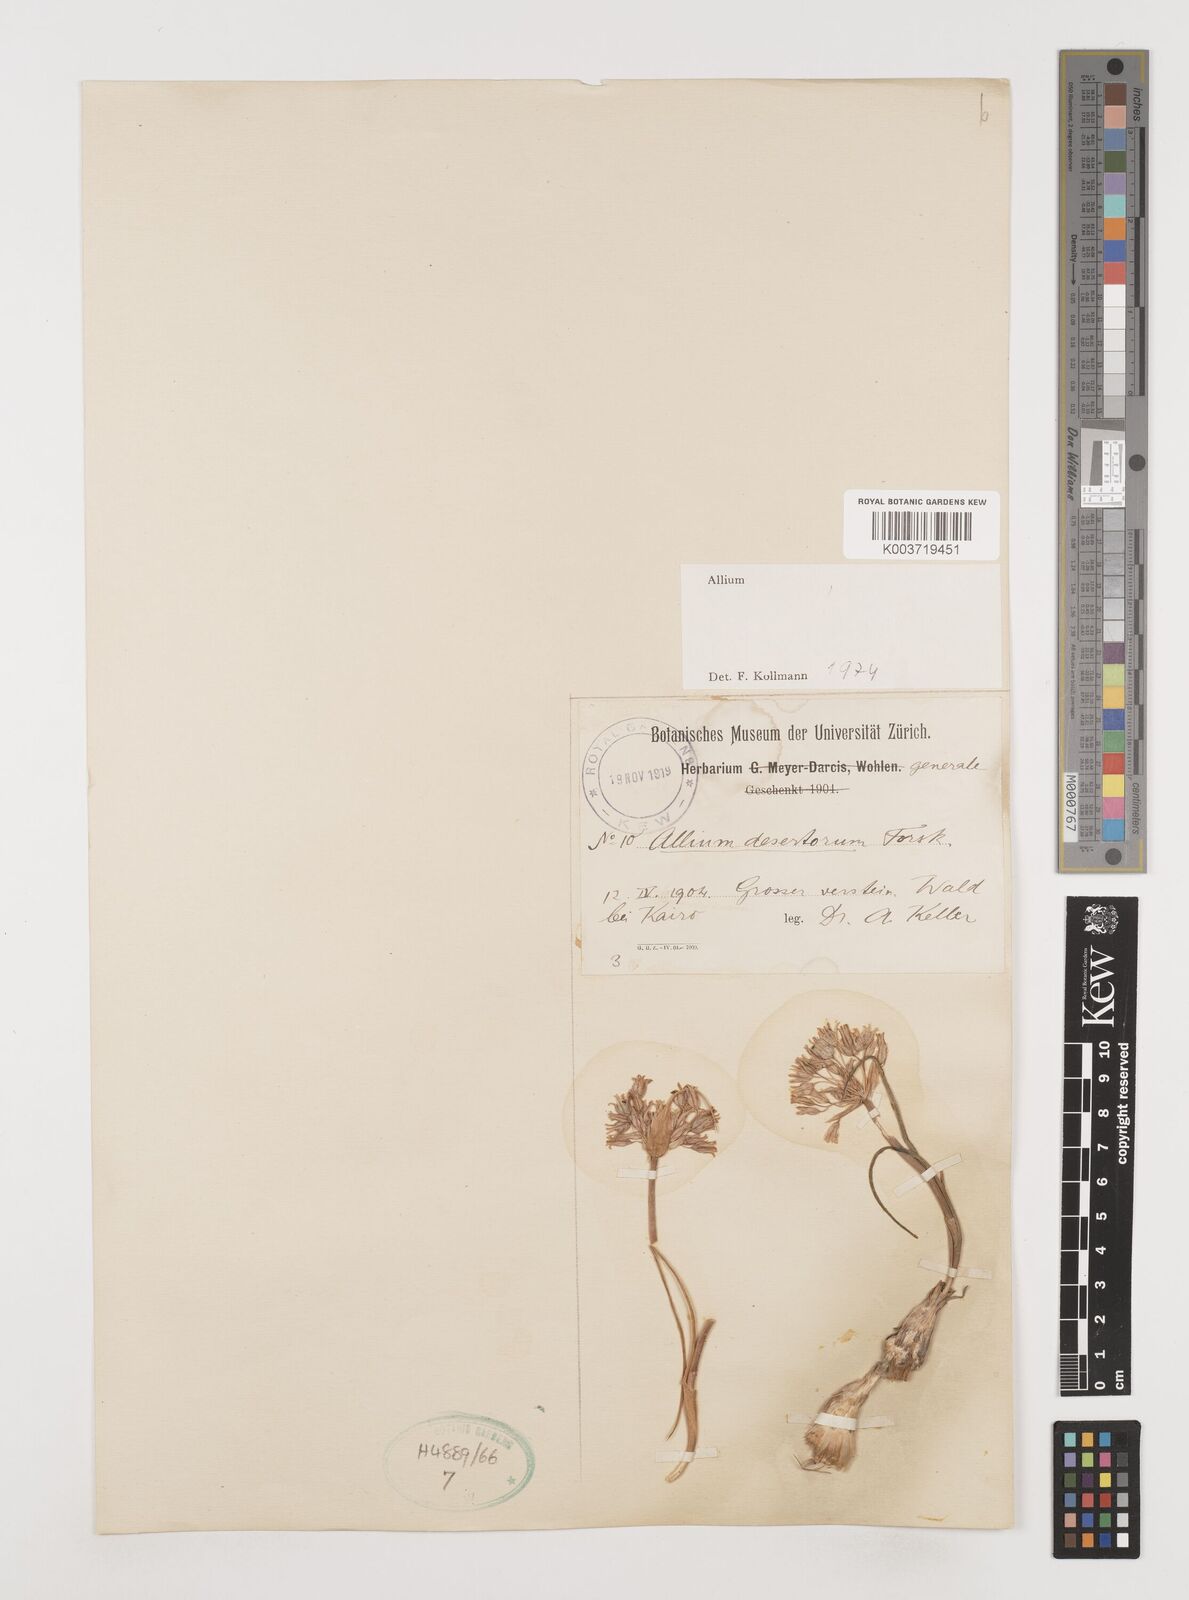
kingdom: Plantae
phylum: Tracheophyta
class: Liliopsida
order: Asparagales
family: Amaryllidaceae
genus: Allium
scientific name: Allium desertorum
